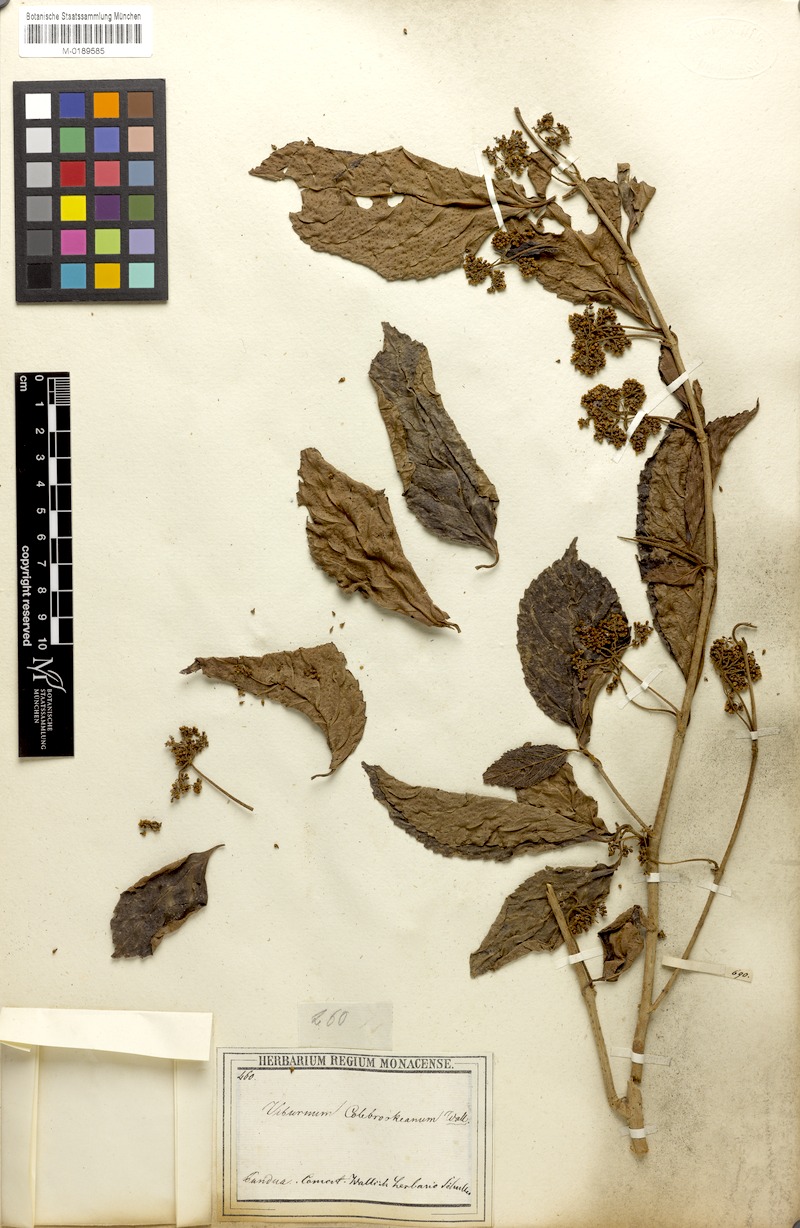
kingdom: Plantae
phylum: Tracheophyta
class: Magnoliopsida
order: Dipsacales
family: Viburnaceae
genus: Viburnum
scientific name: Viburnum colebrookeanum
